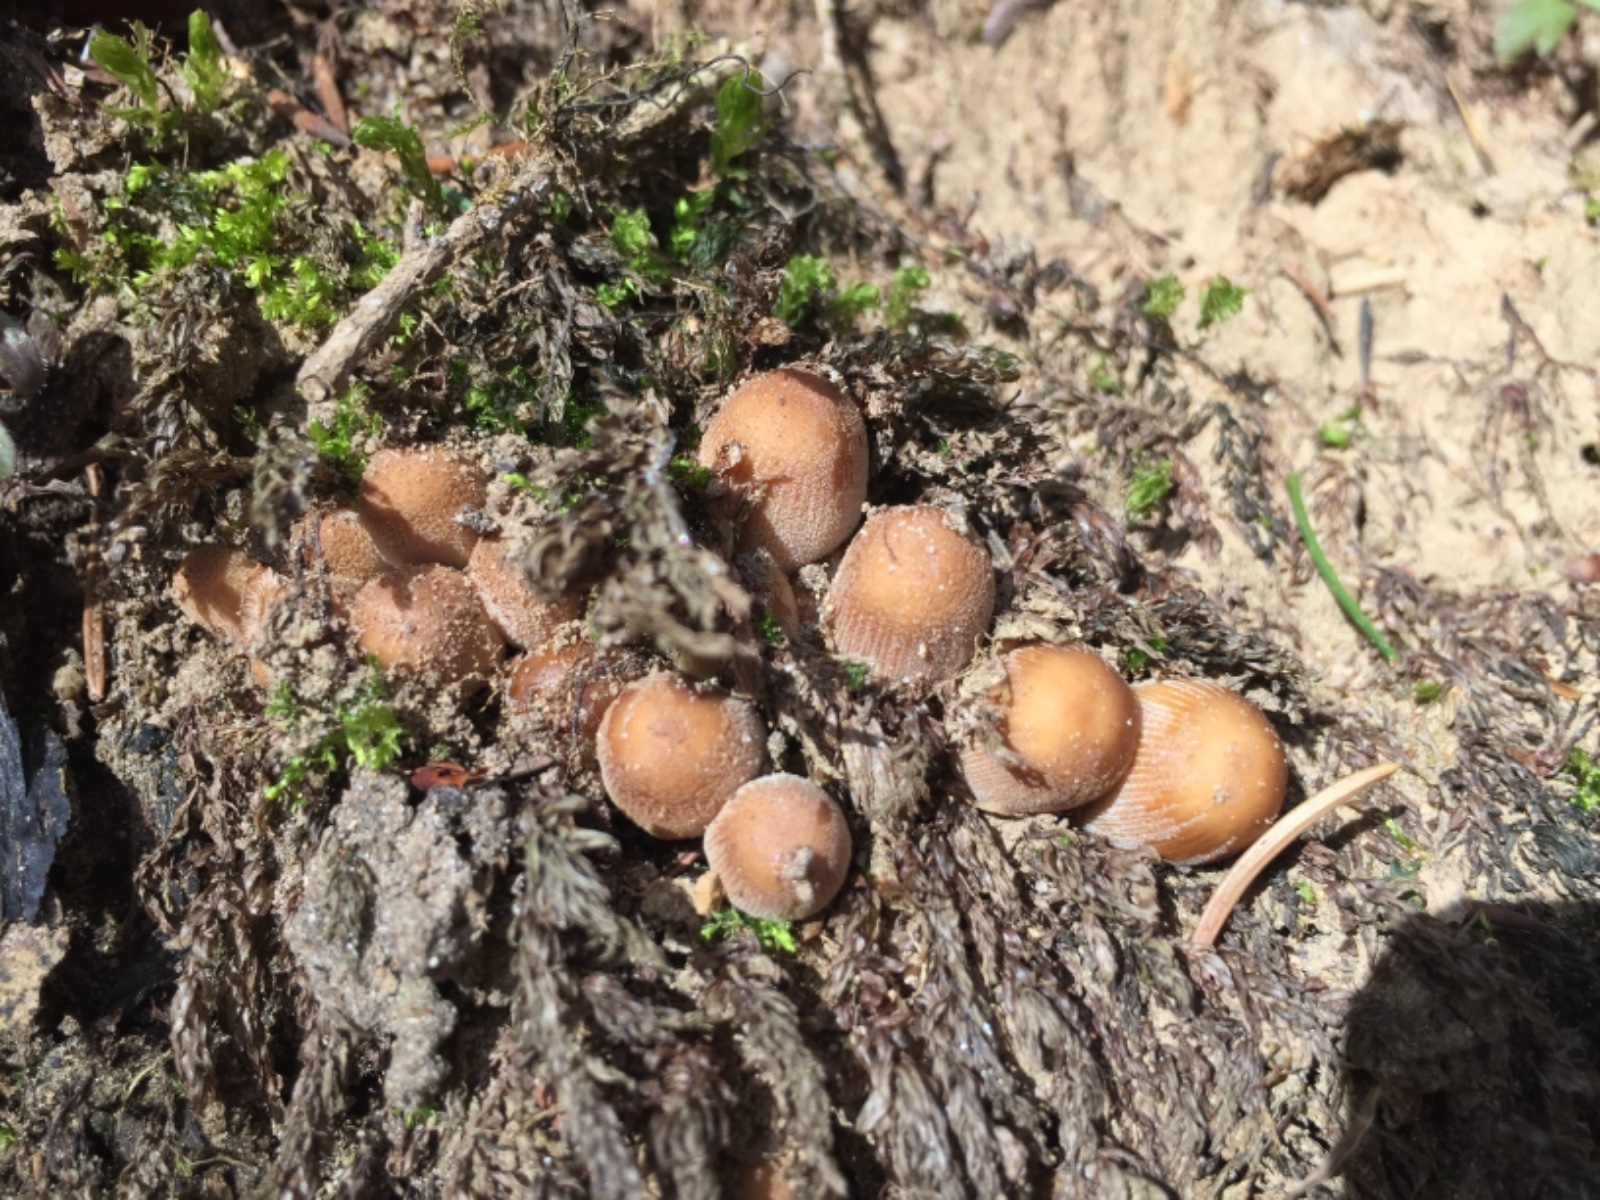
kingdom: Fungi
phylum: Basidiomycota
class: Agaricomycetes
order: Agaricales
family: Psathyrellaceae
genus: Coprinellus
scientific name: Coprinellus micaceus
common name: glimmer-blækhat
